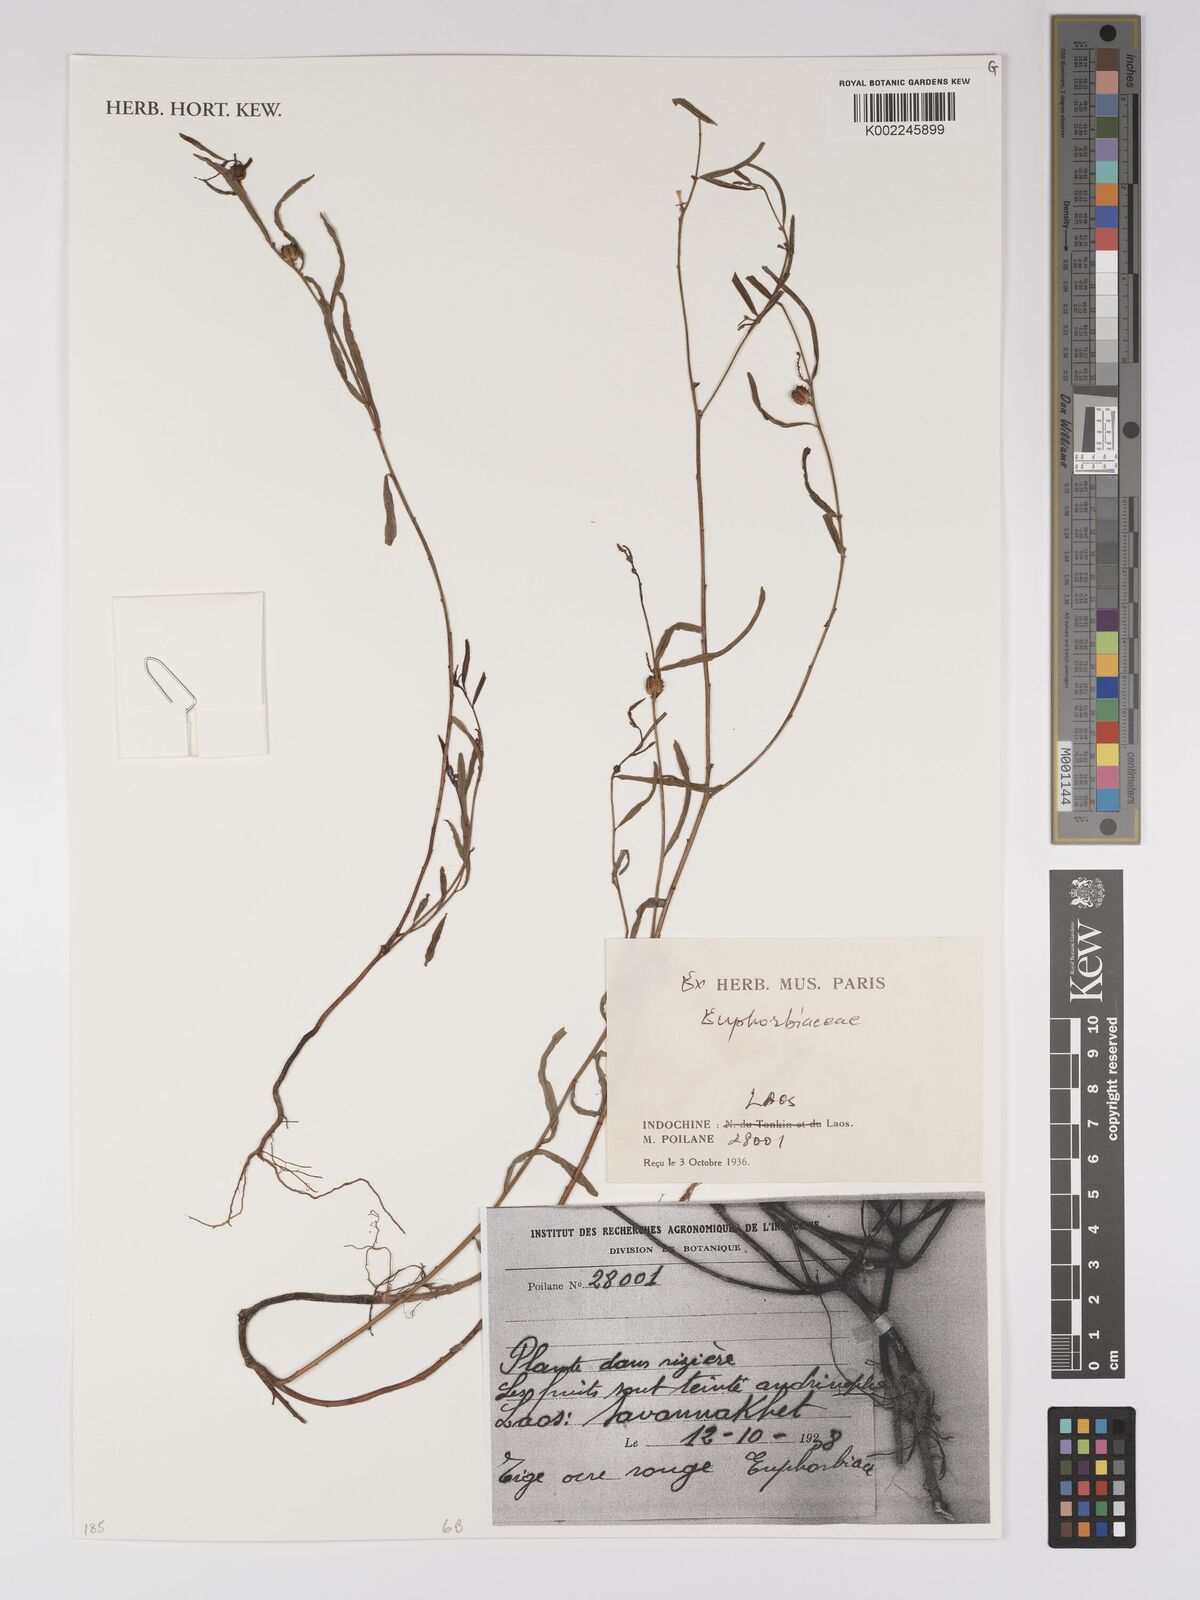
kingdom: Plantae
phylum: Tracheophyta
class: Magnoliopsida
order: Malpighiales
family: Euphorbiaceae
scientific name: Euphorbiaceae
